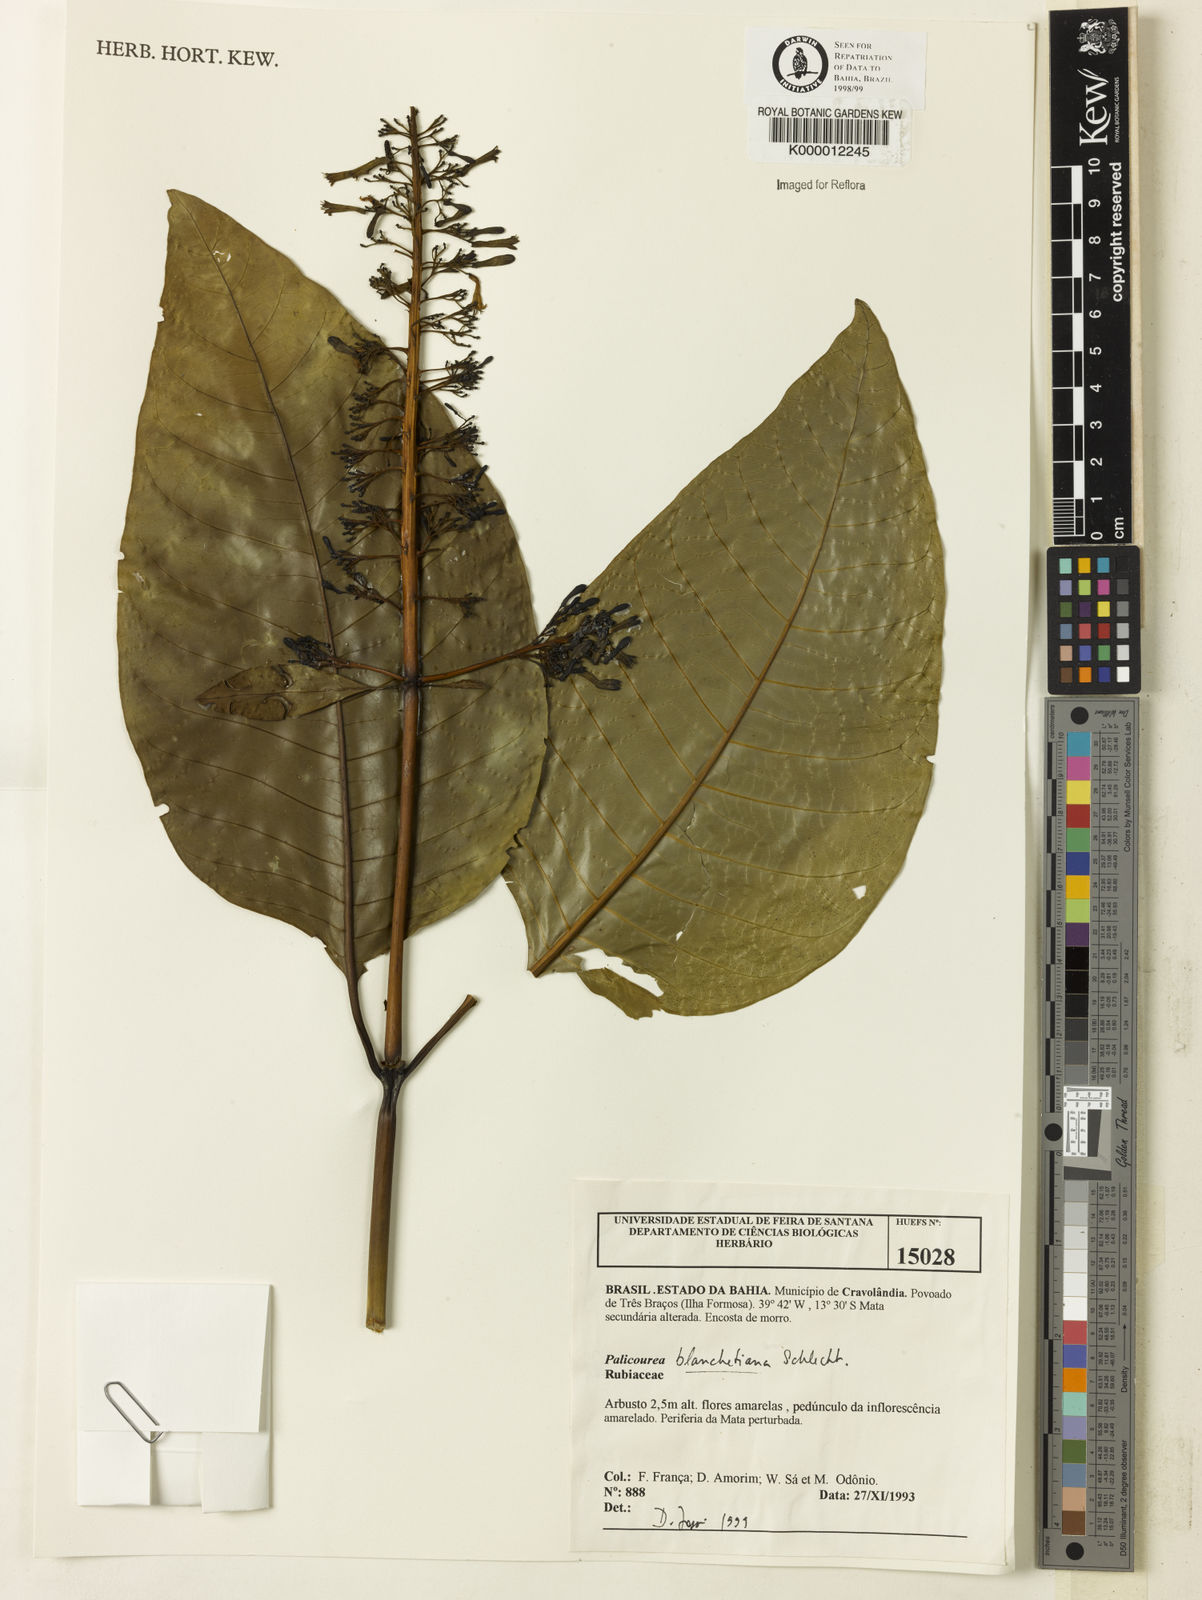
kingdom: Plantae
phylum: Tracheophyta
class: Magnoliopsida
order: Gentianales
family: Rubiaceae
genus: Palicourea
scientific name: Palicourea blanchetiana
